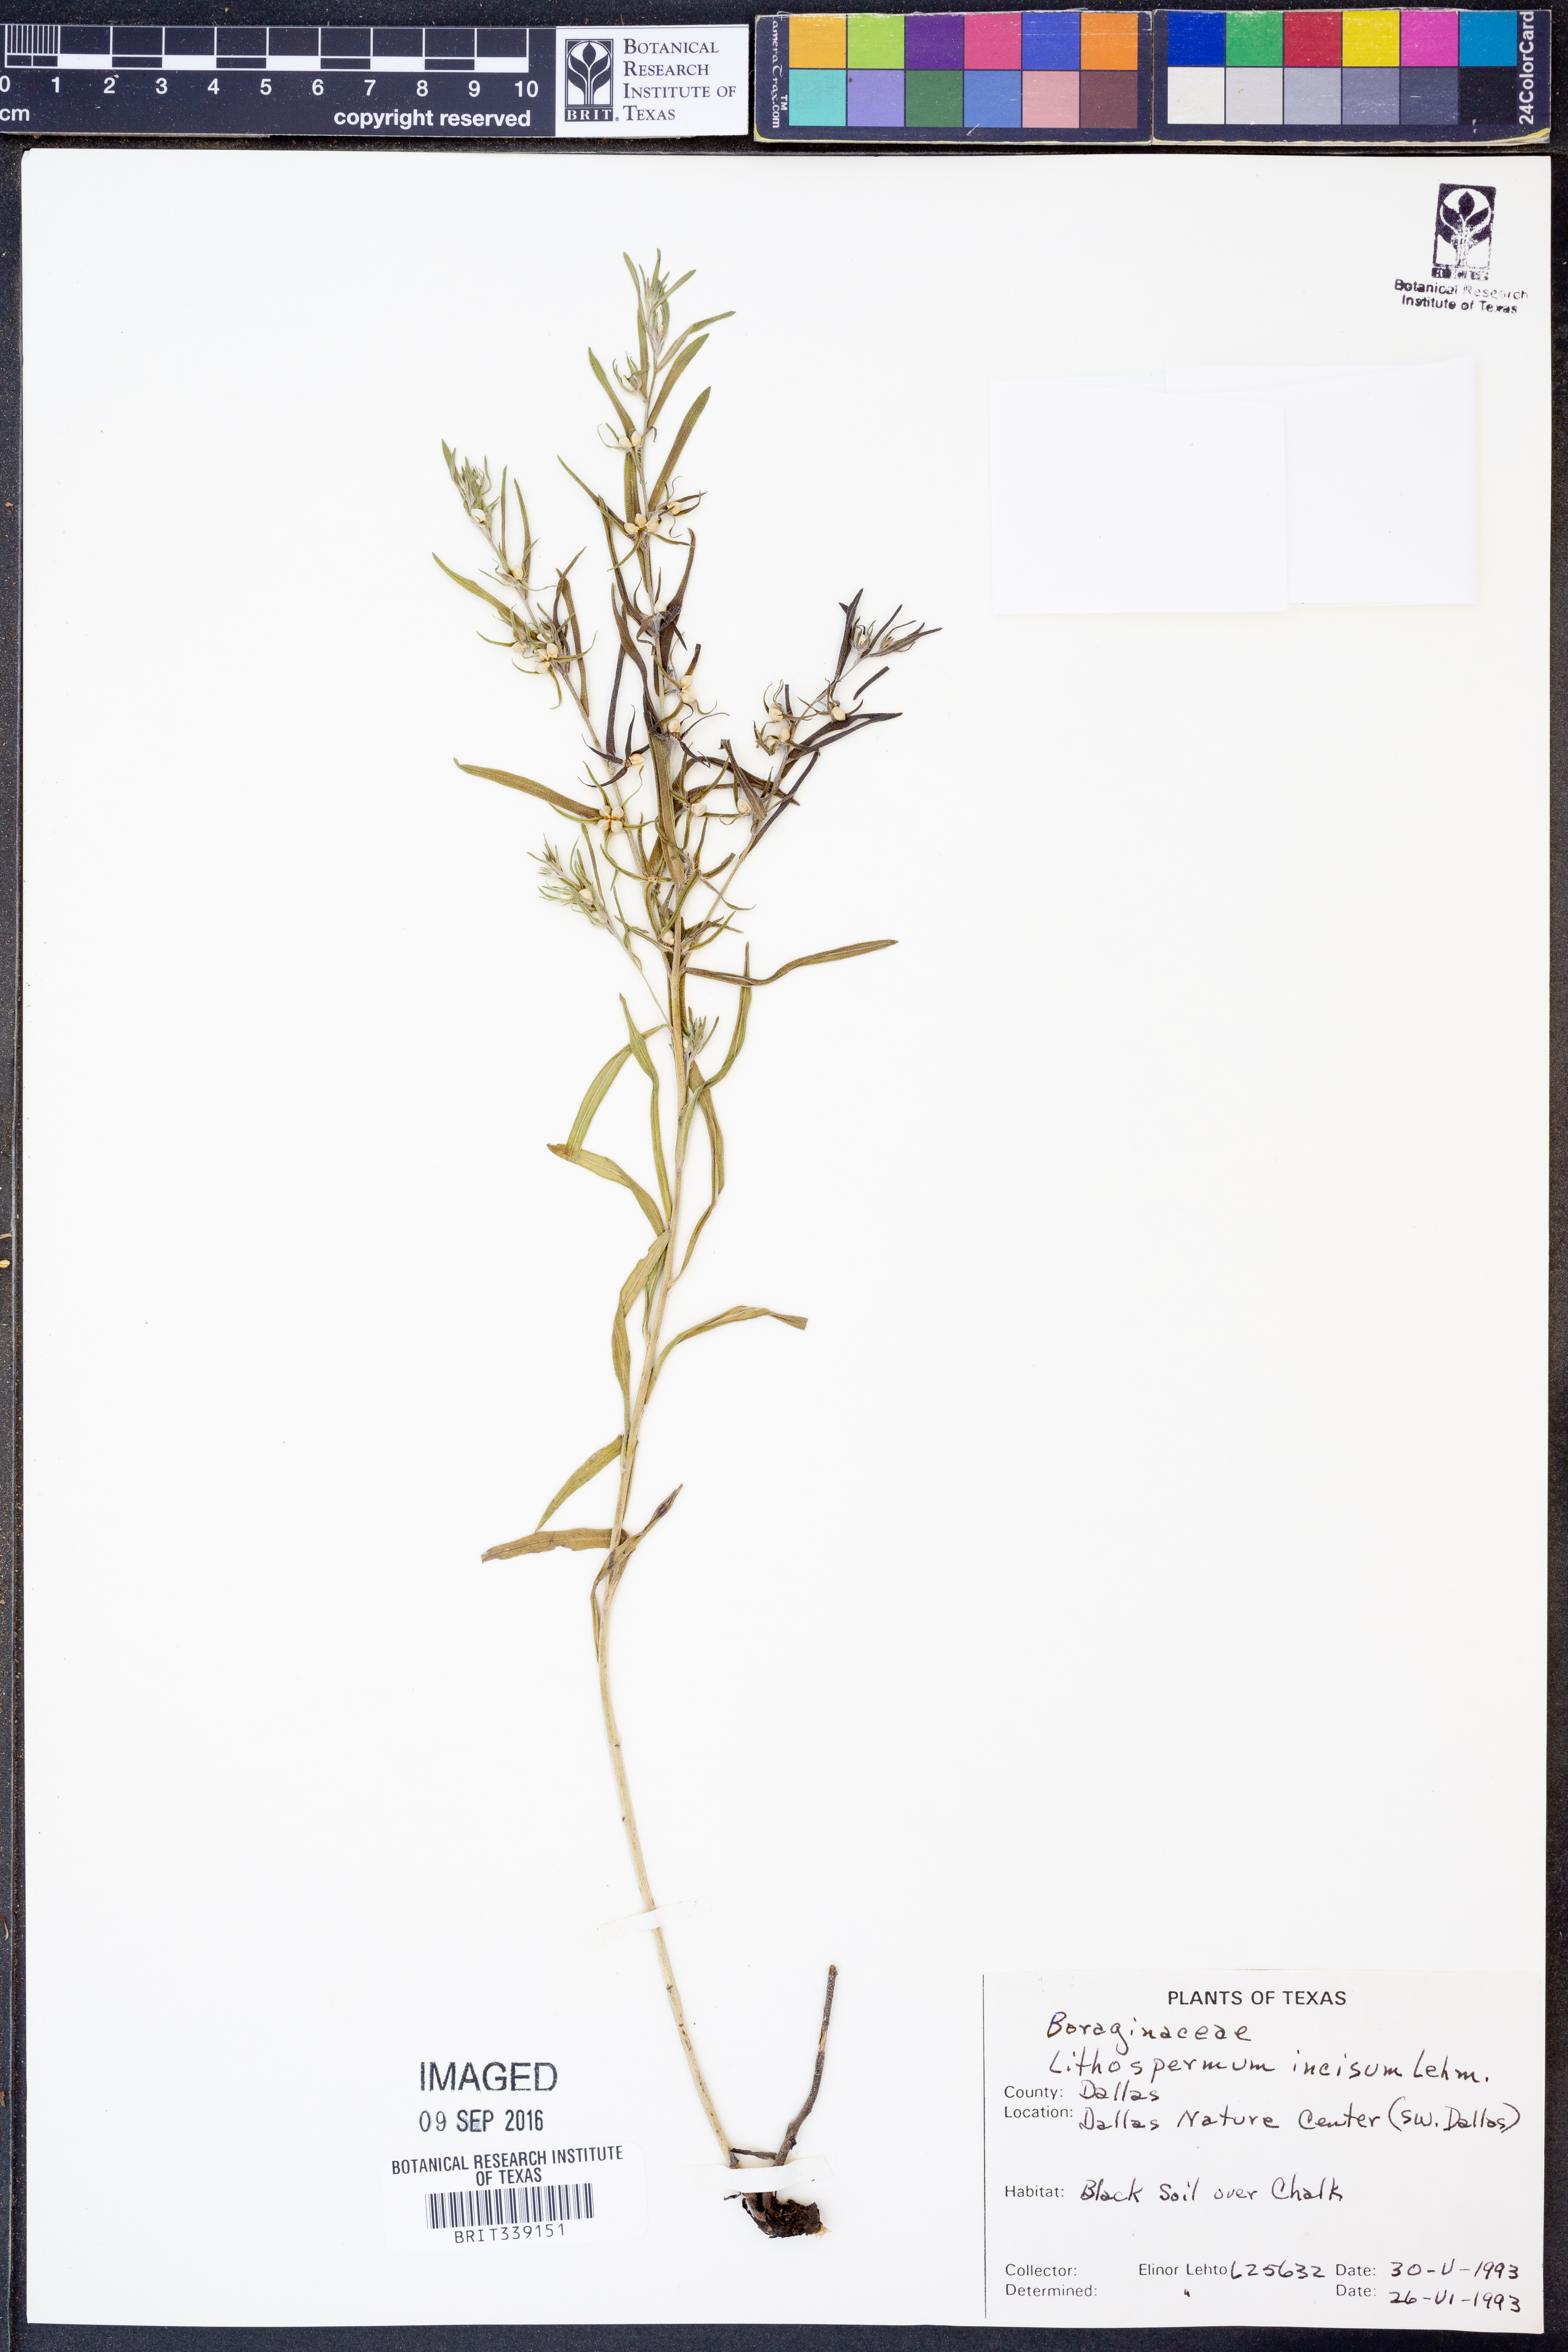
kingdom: Plantae
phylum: Tracheophyta
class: Magnoliopsida
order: Boraginales
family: Boraginaceae
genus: Lithospermum
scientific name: Lithospermum incisum
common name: Fringed gromwell
